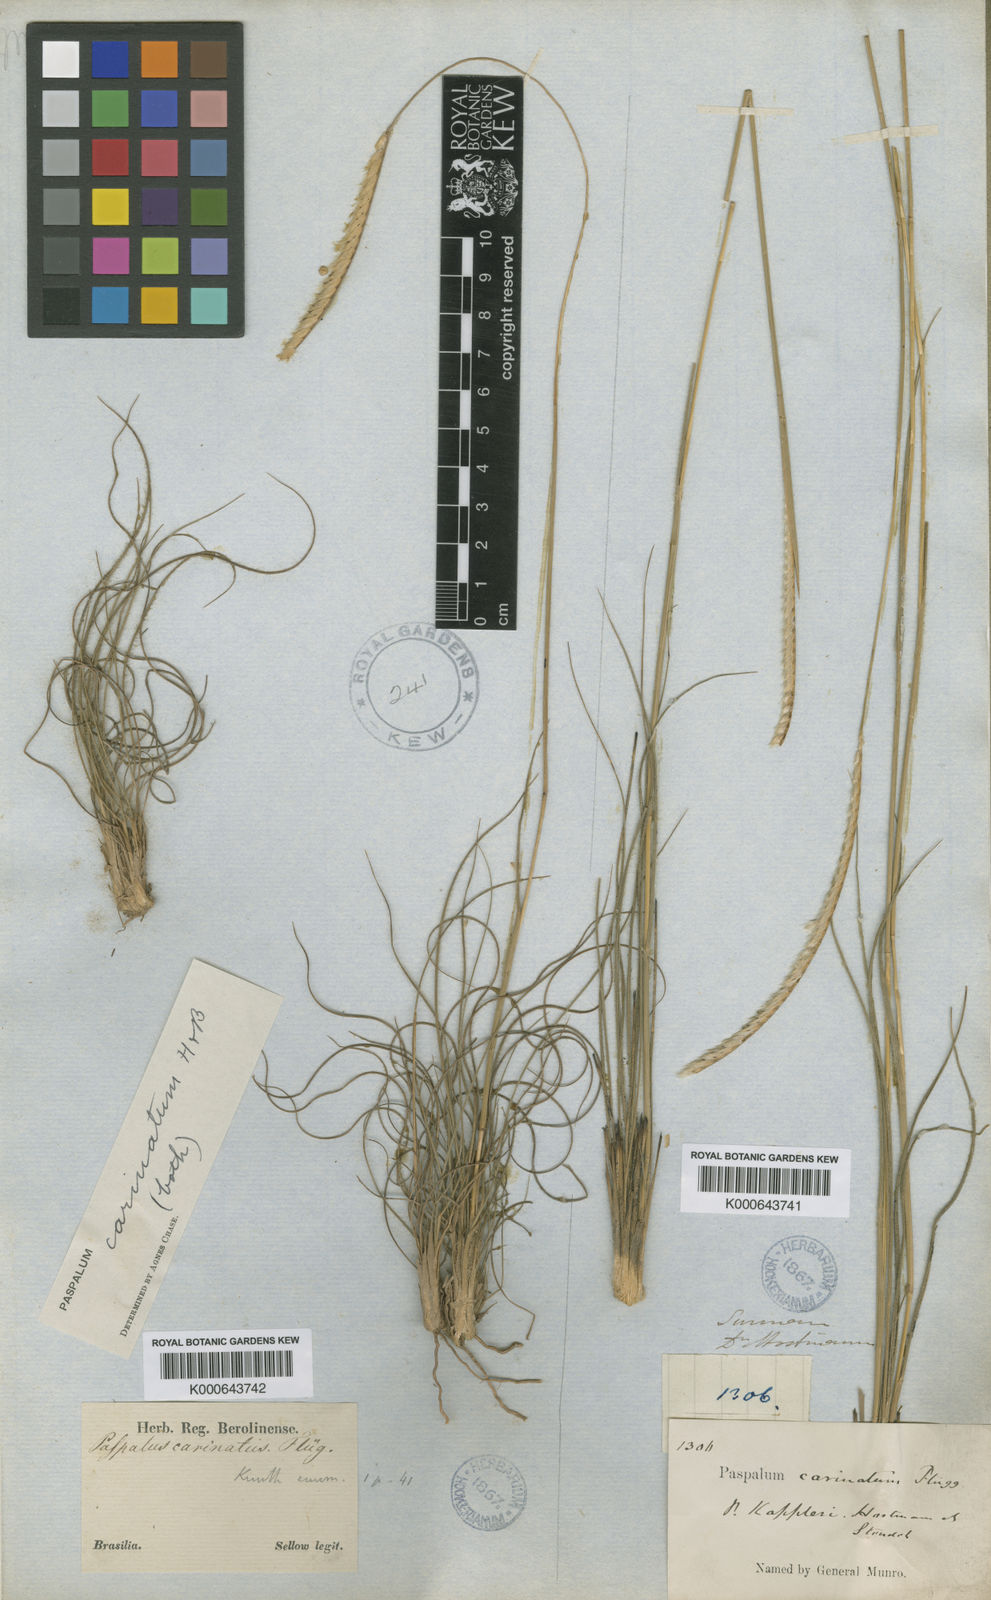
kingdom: Plantae
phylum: Tracheophyta
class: Liliopsida
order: Poales
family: Poaceae
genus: Paspalum
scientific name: Paspalum
